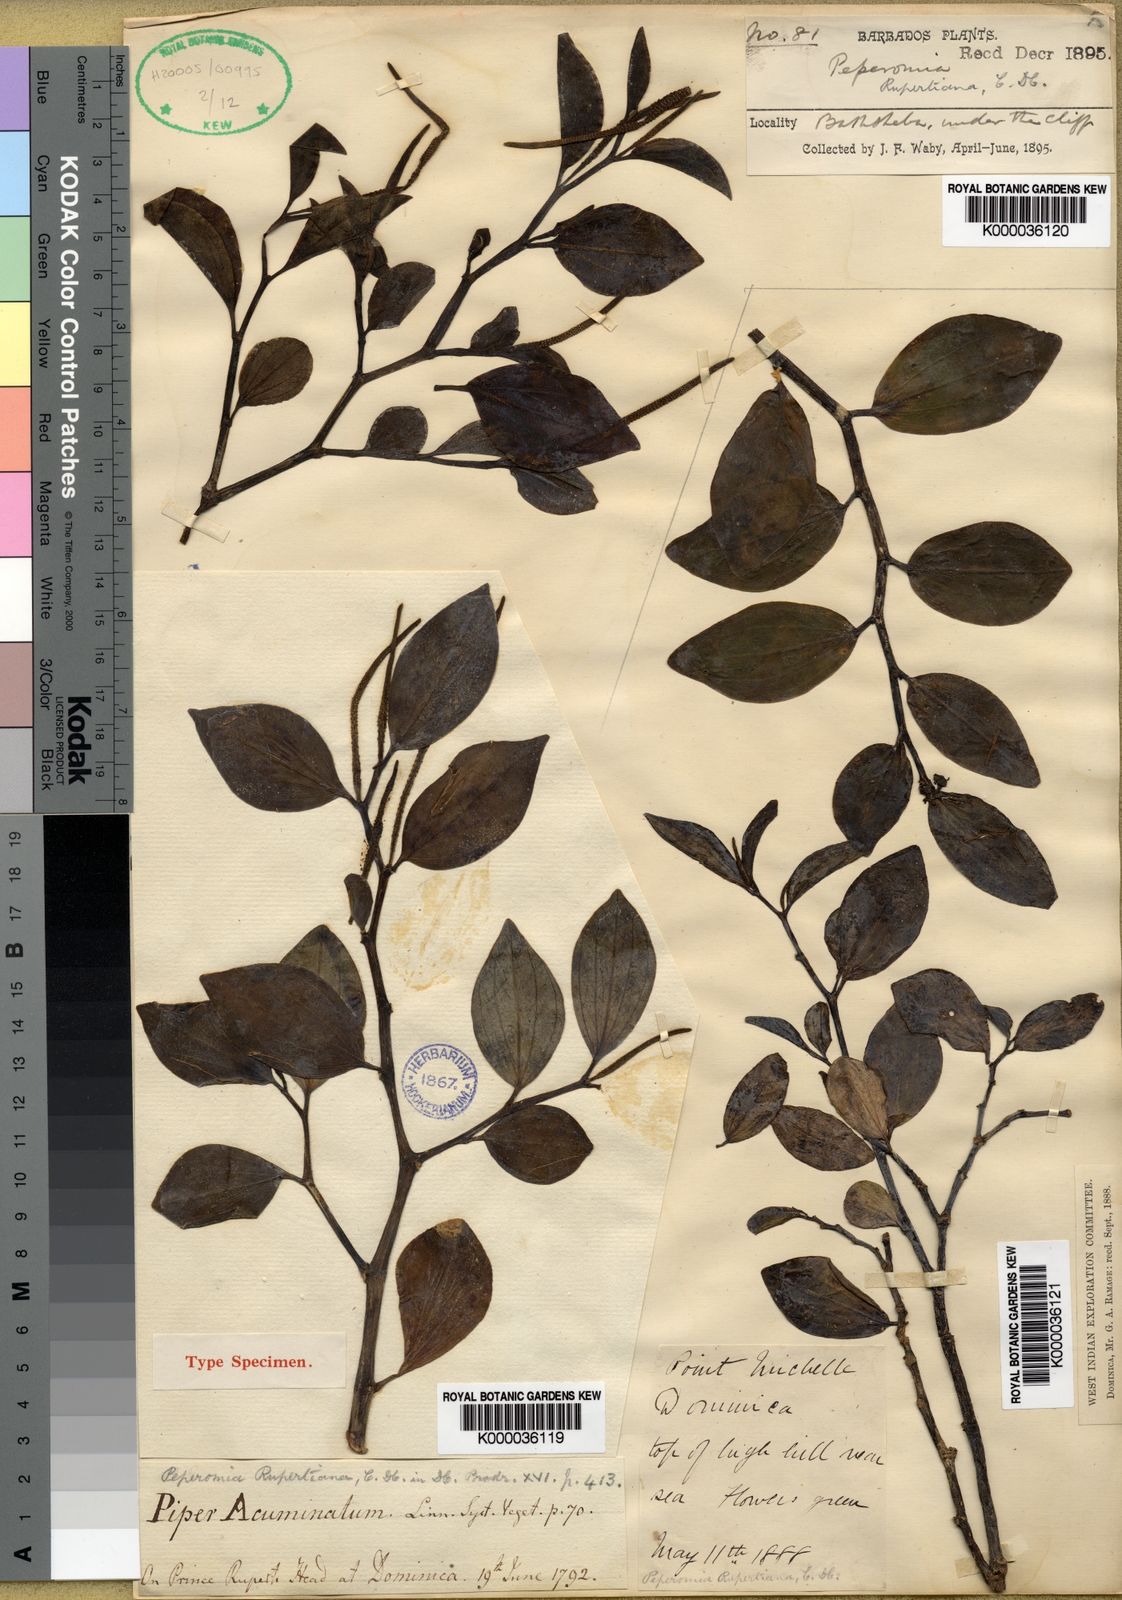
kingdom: Plantae
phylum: Tracheophyta
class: Magnoliopsida
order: Piperales
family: Piperaceae
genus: Peperomia
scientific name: Peperomia myrtifolia
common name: Myrtleleaf peperomia
